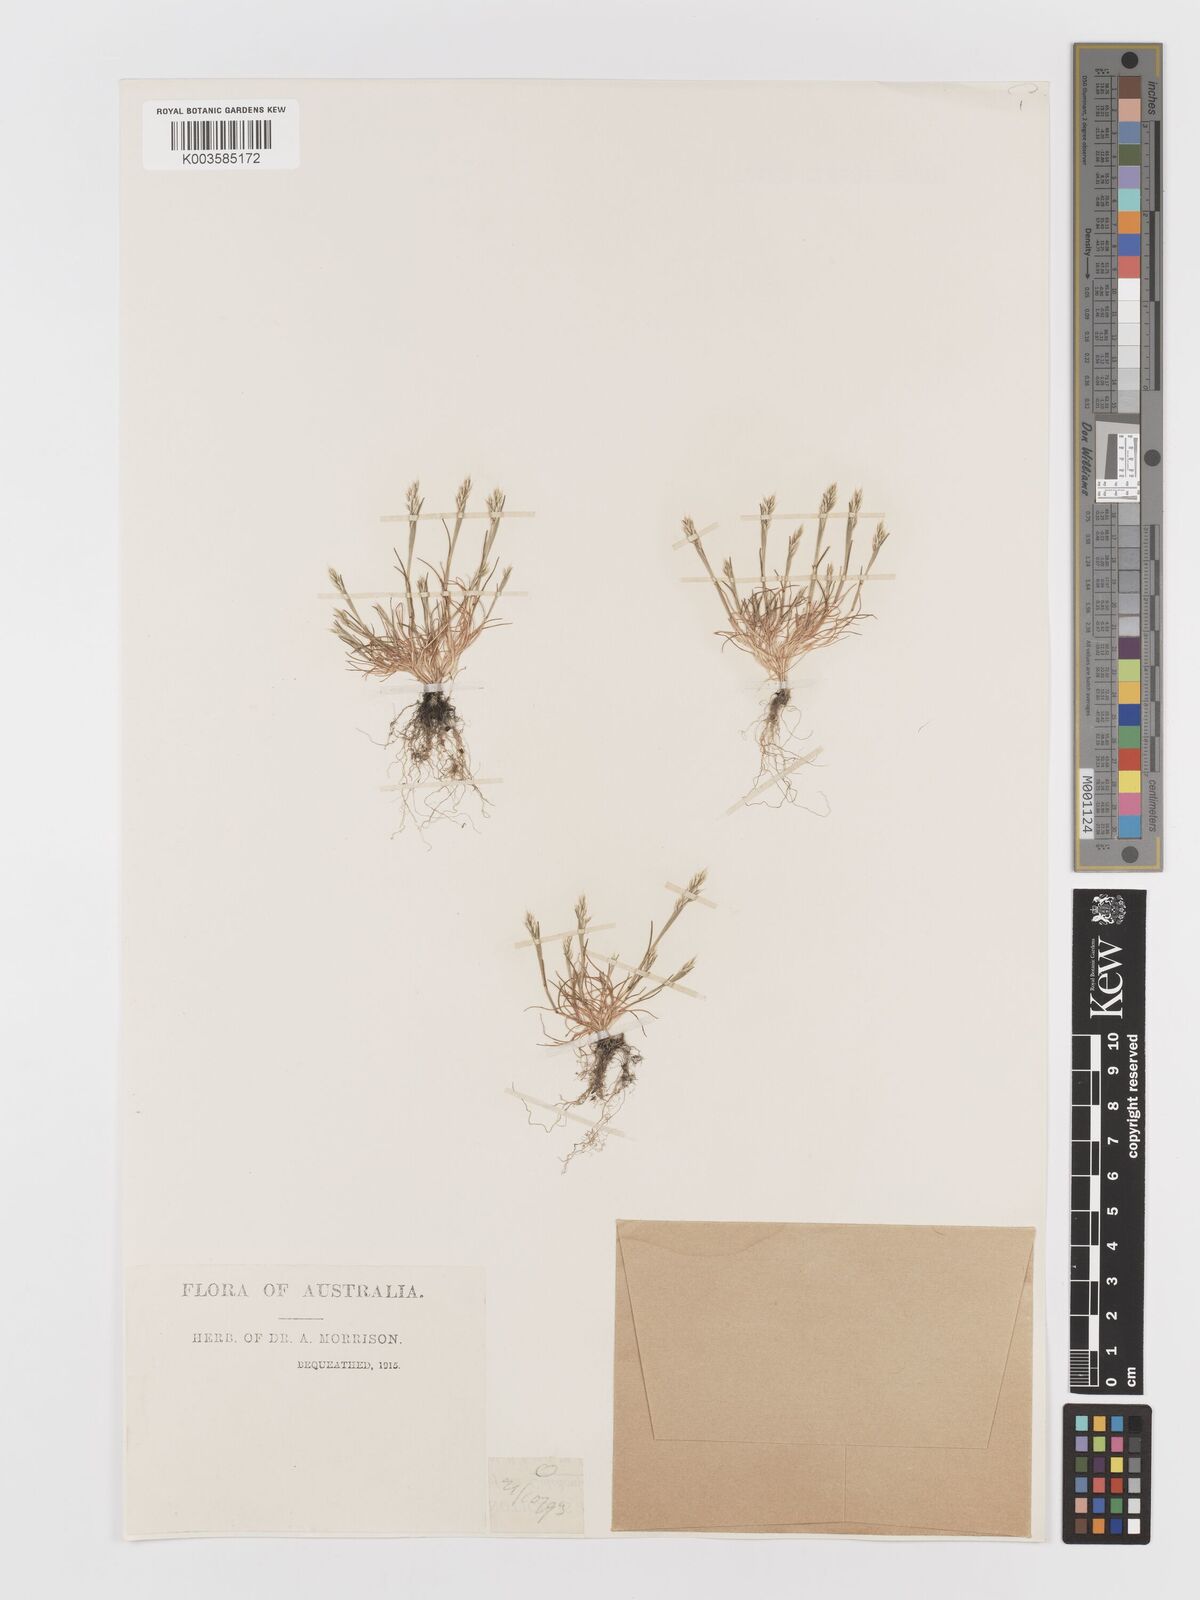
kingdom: Plantae
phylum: Tracheophyta
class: Liliopsida
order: Poales
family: Poaceae
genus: Aira
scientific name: Aira praecox
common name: Early hair-grass
